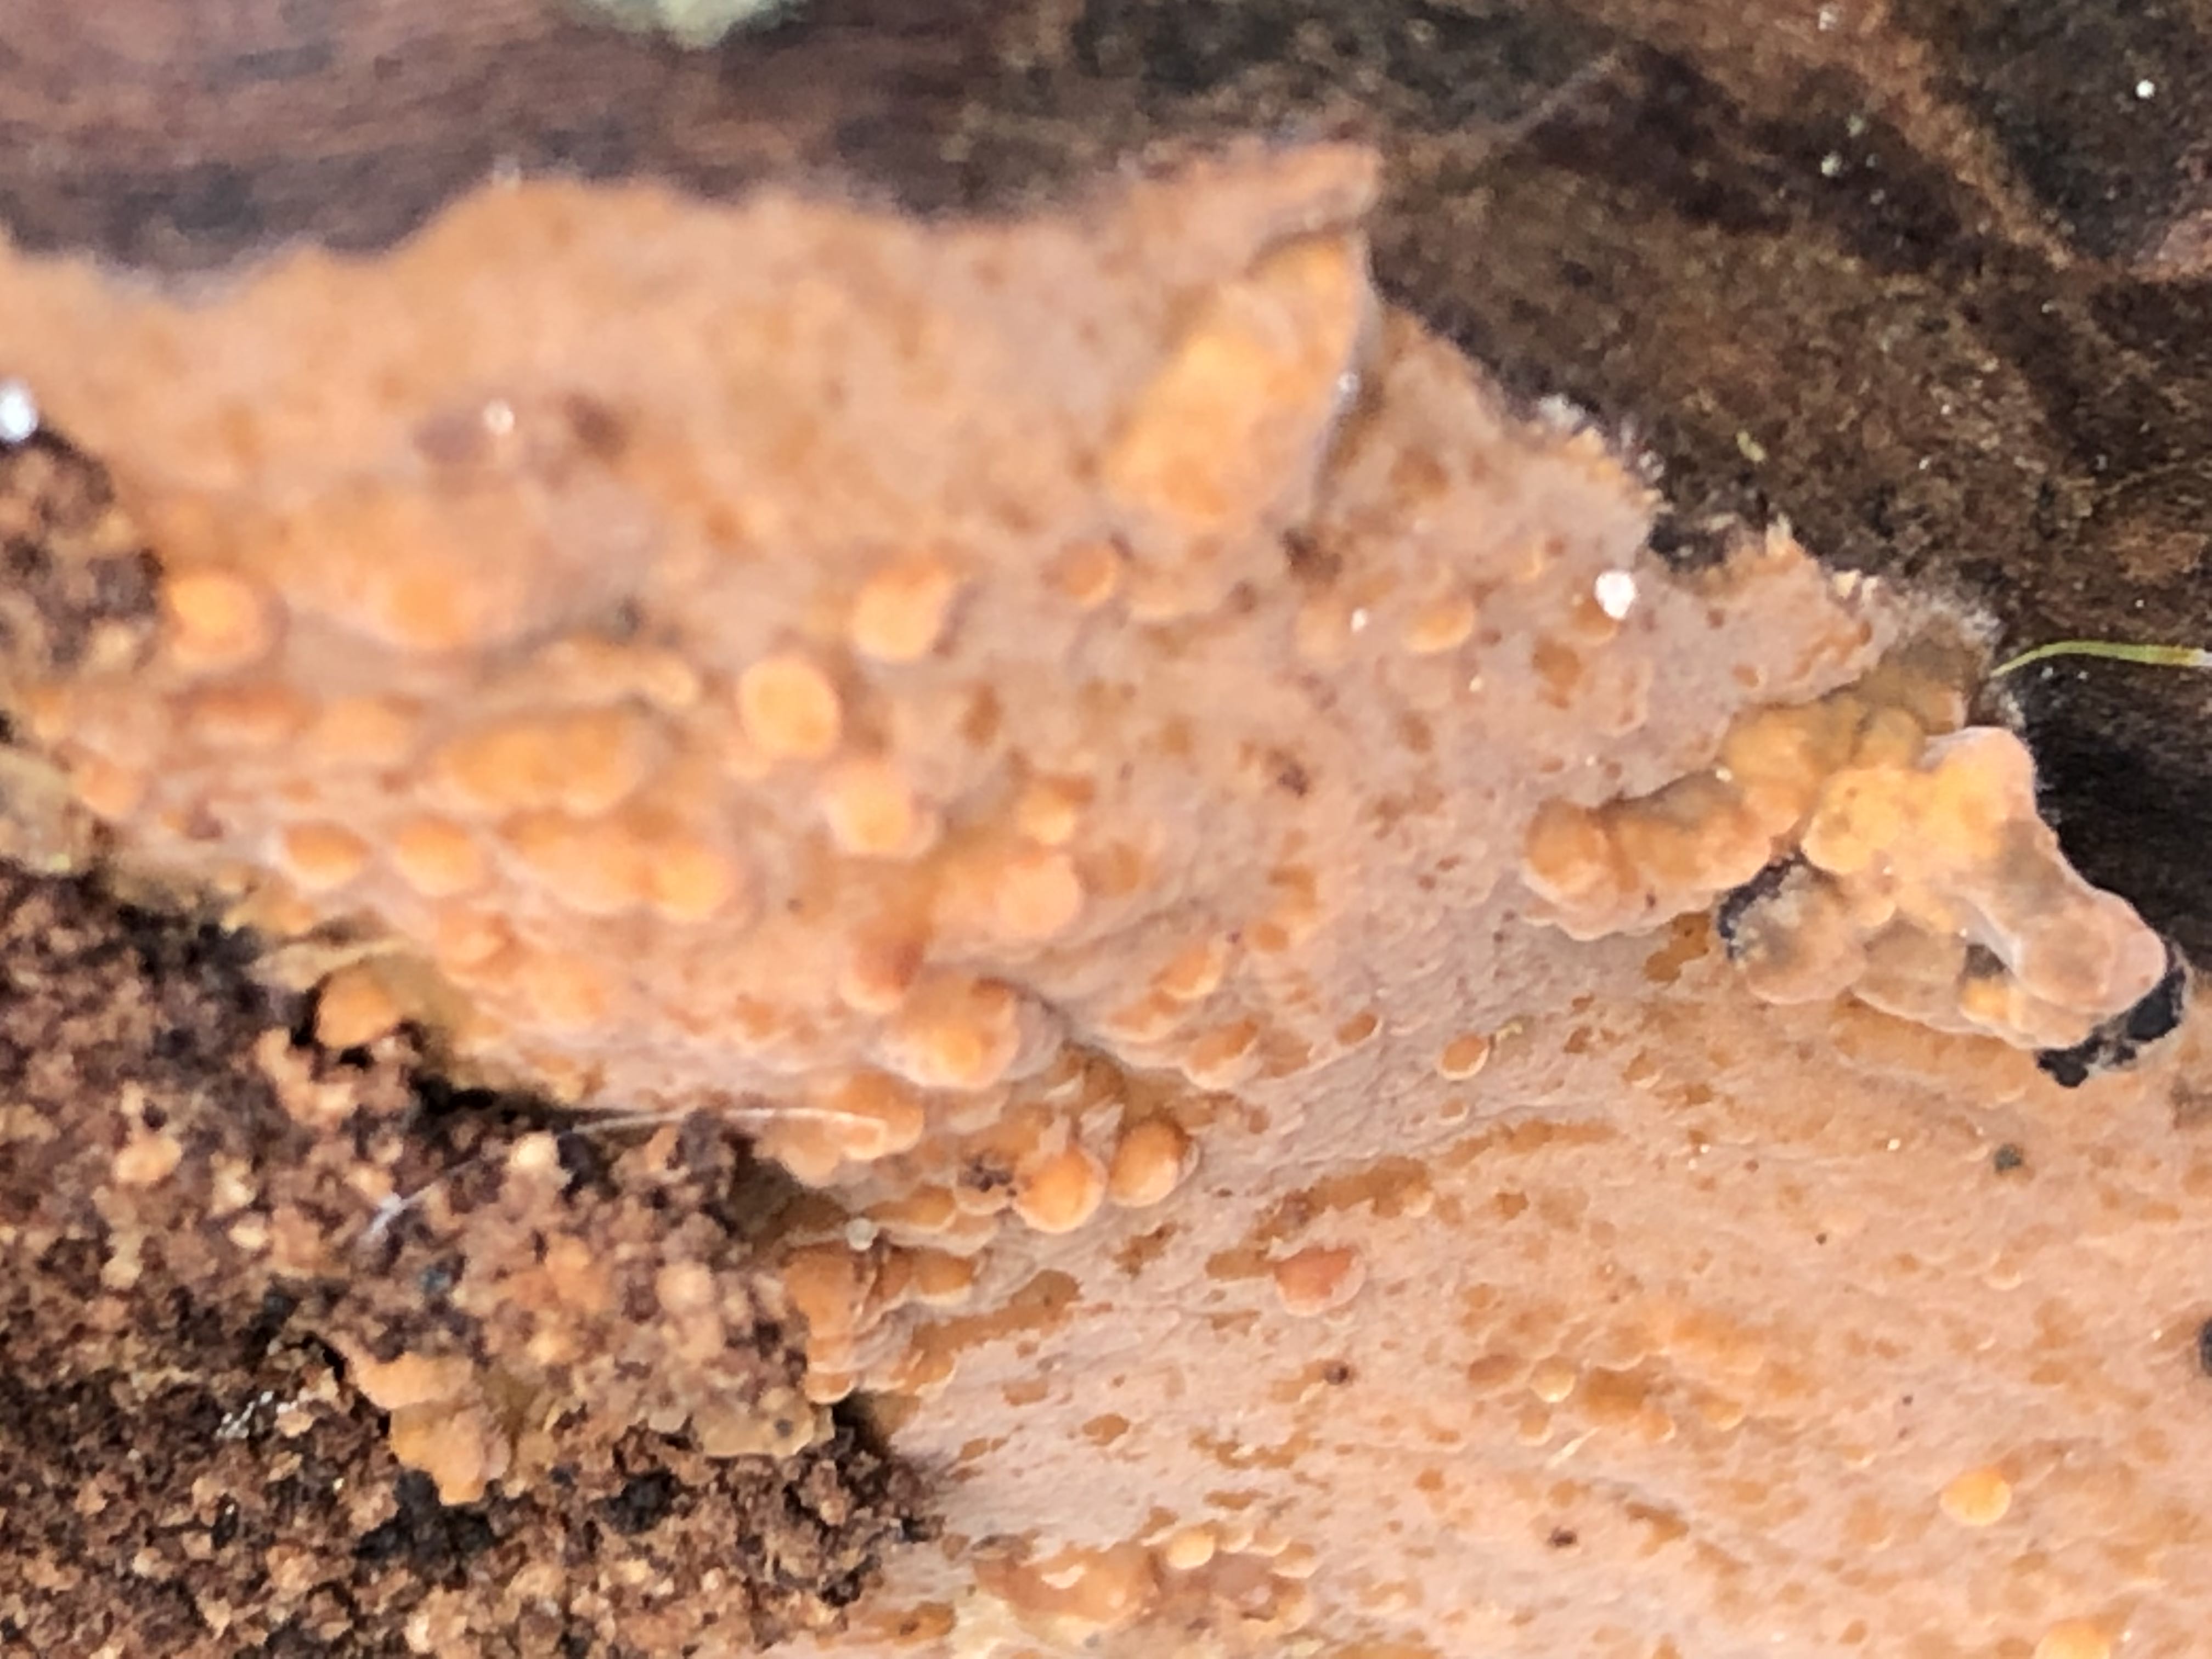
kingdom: Fungi
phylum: Basidiomycota
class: Agaricomycetes
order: Russulales
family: Peniophoraceae
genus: Peniophora
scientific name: Peniophora incarnata
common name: laksefarvet voksskind
